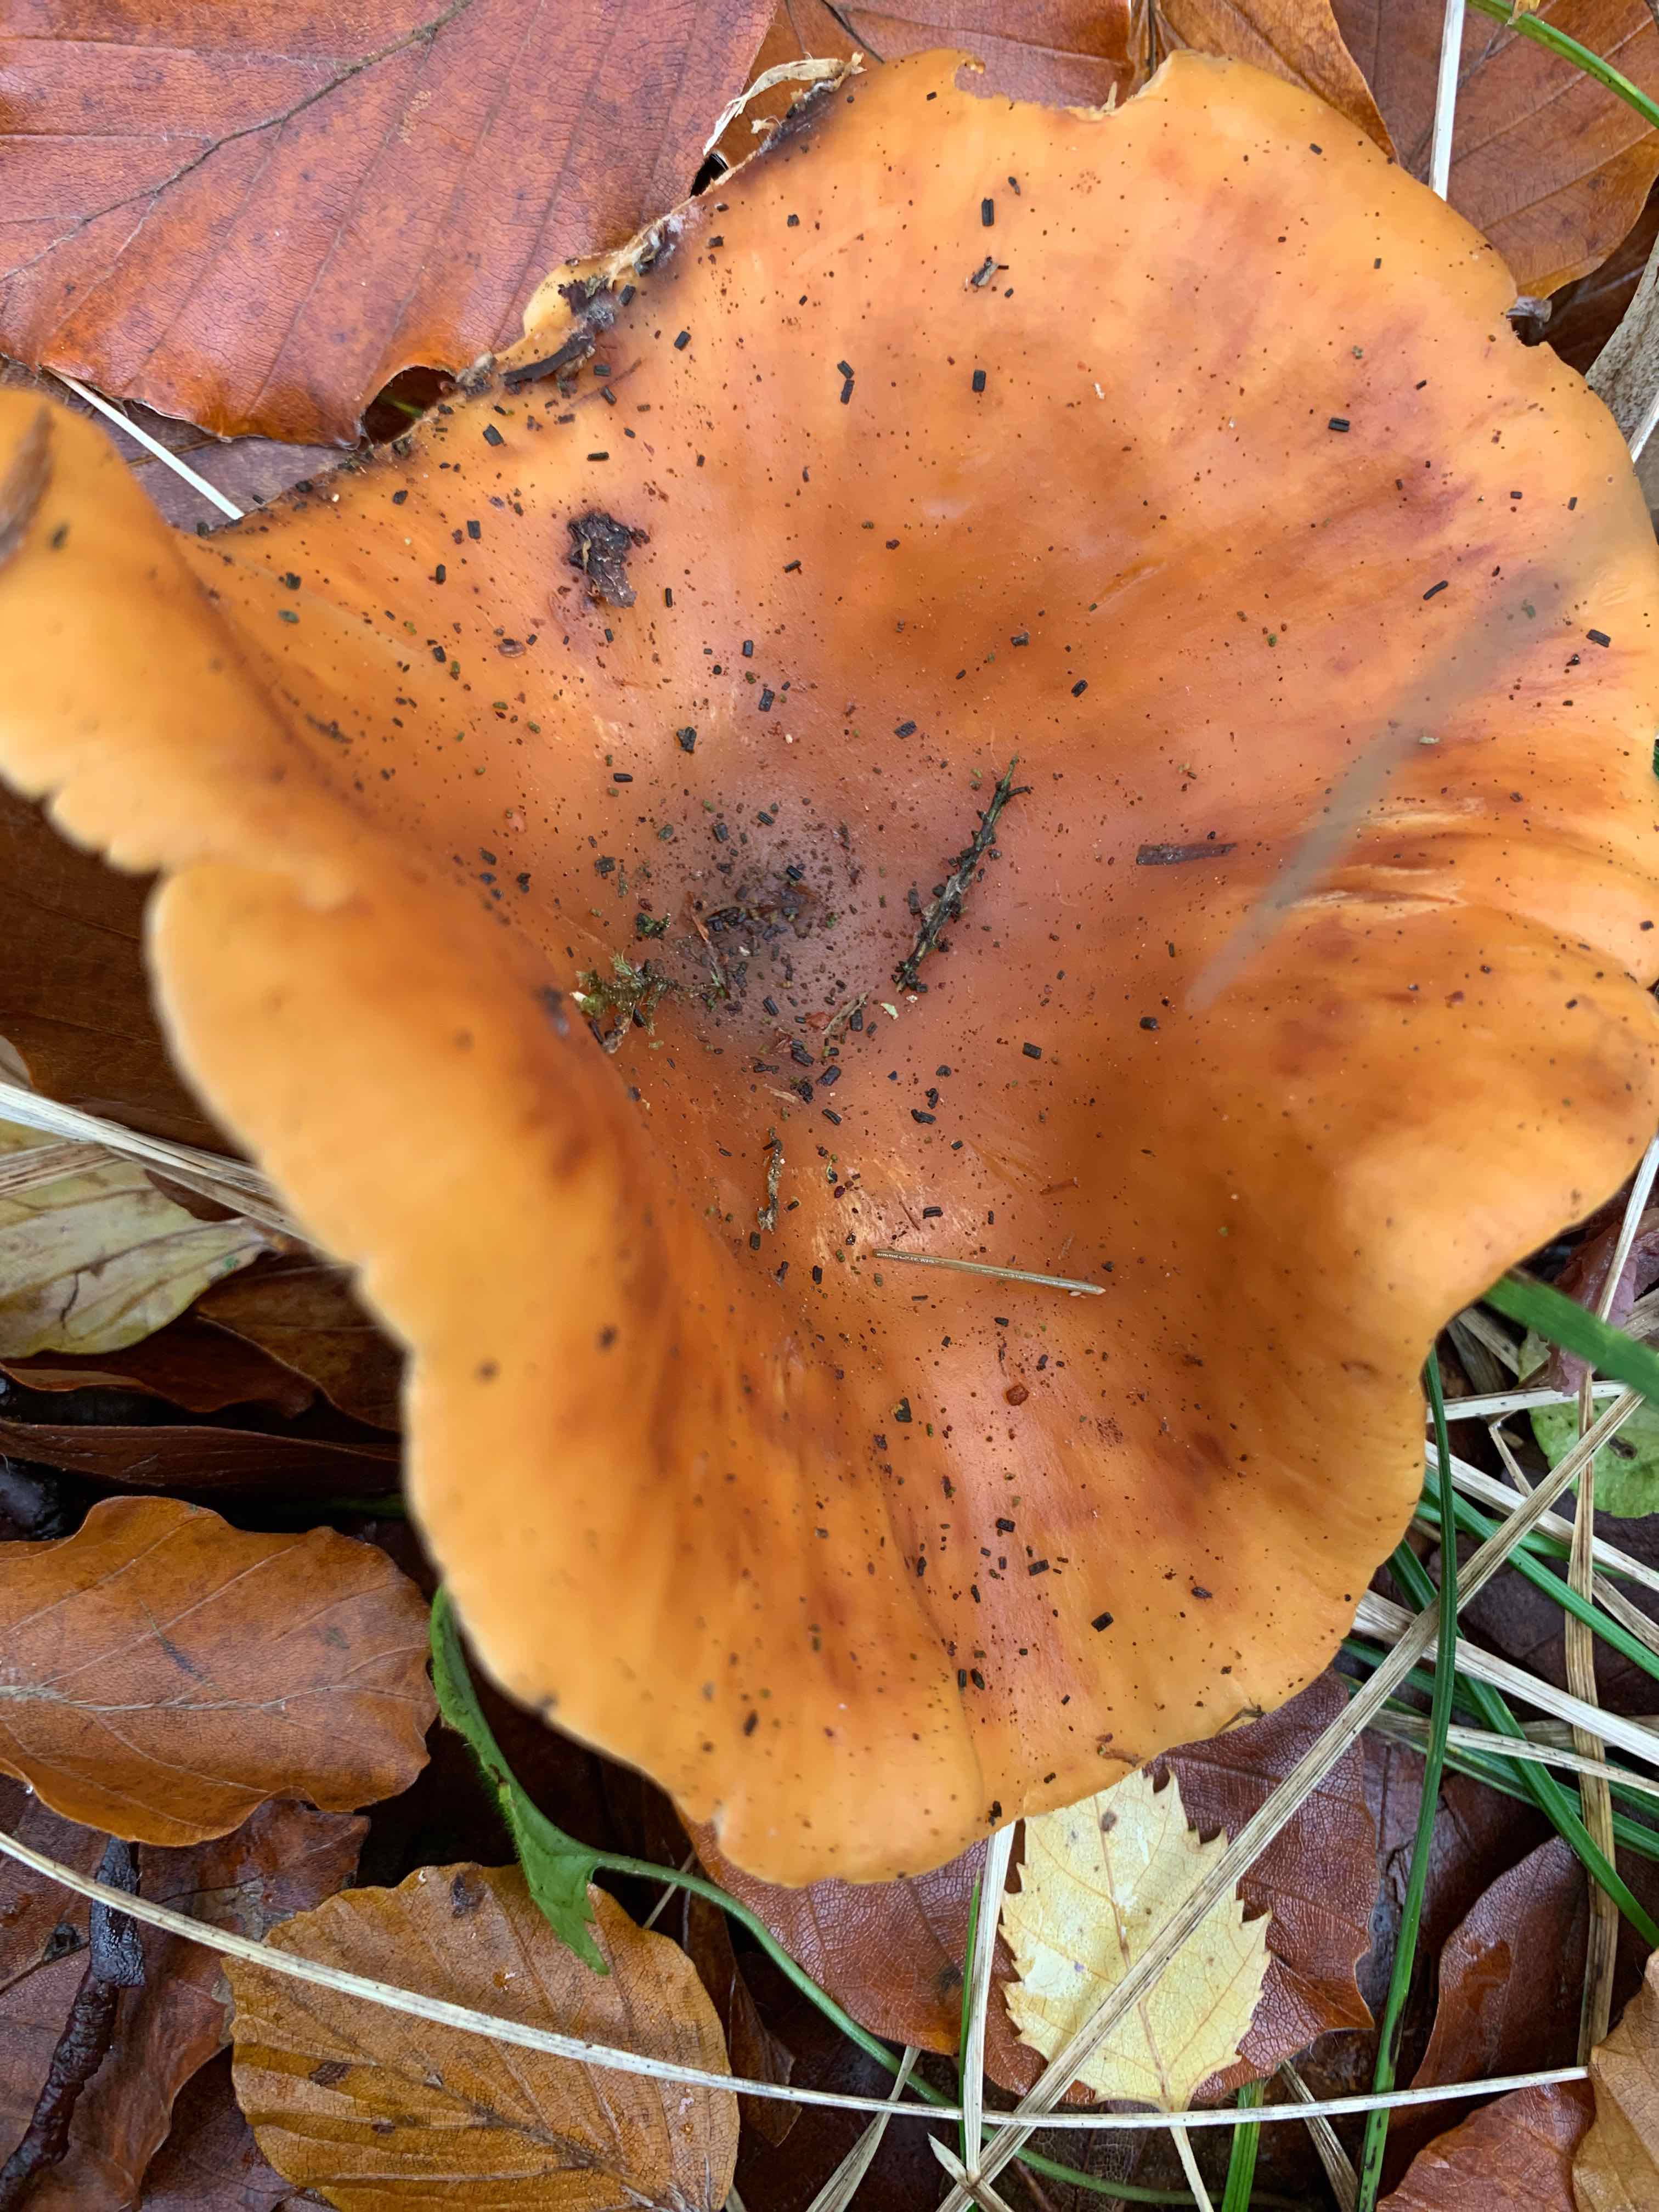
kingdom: Fungi
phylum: Basidiomycota
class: Agaricomycetes
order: Agaricales
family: Tricholomataceae
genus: Paralepista
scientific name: Paralepista flaccida
